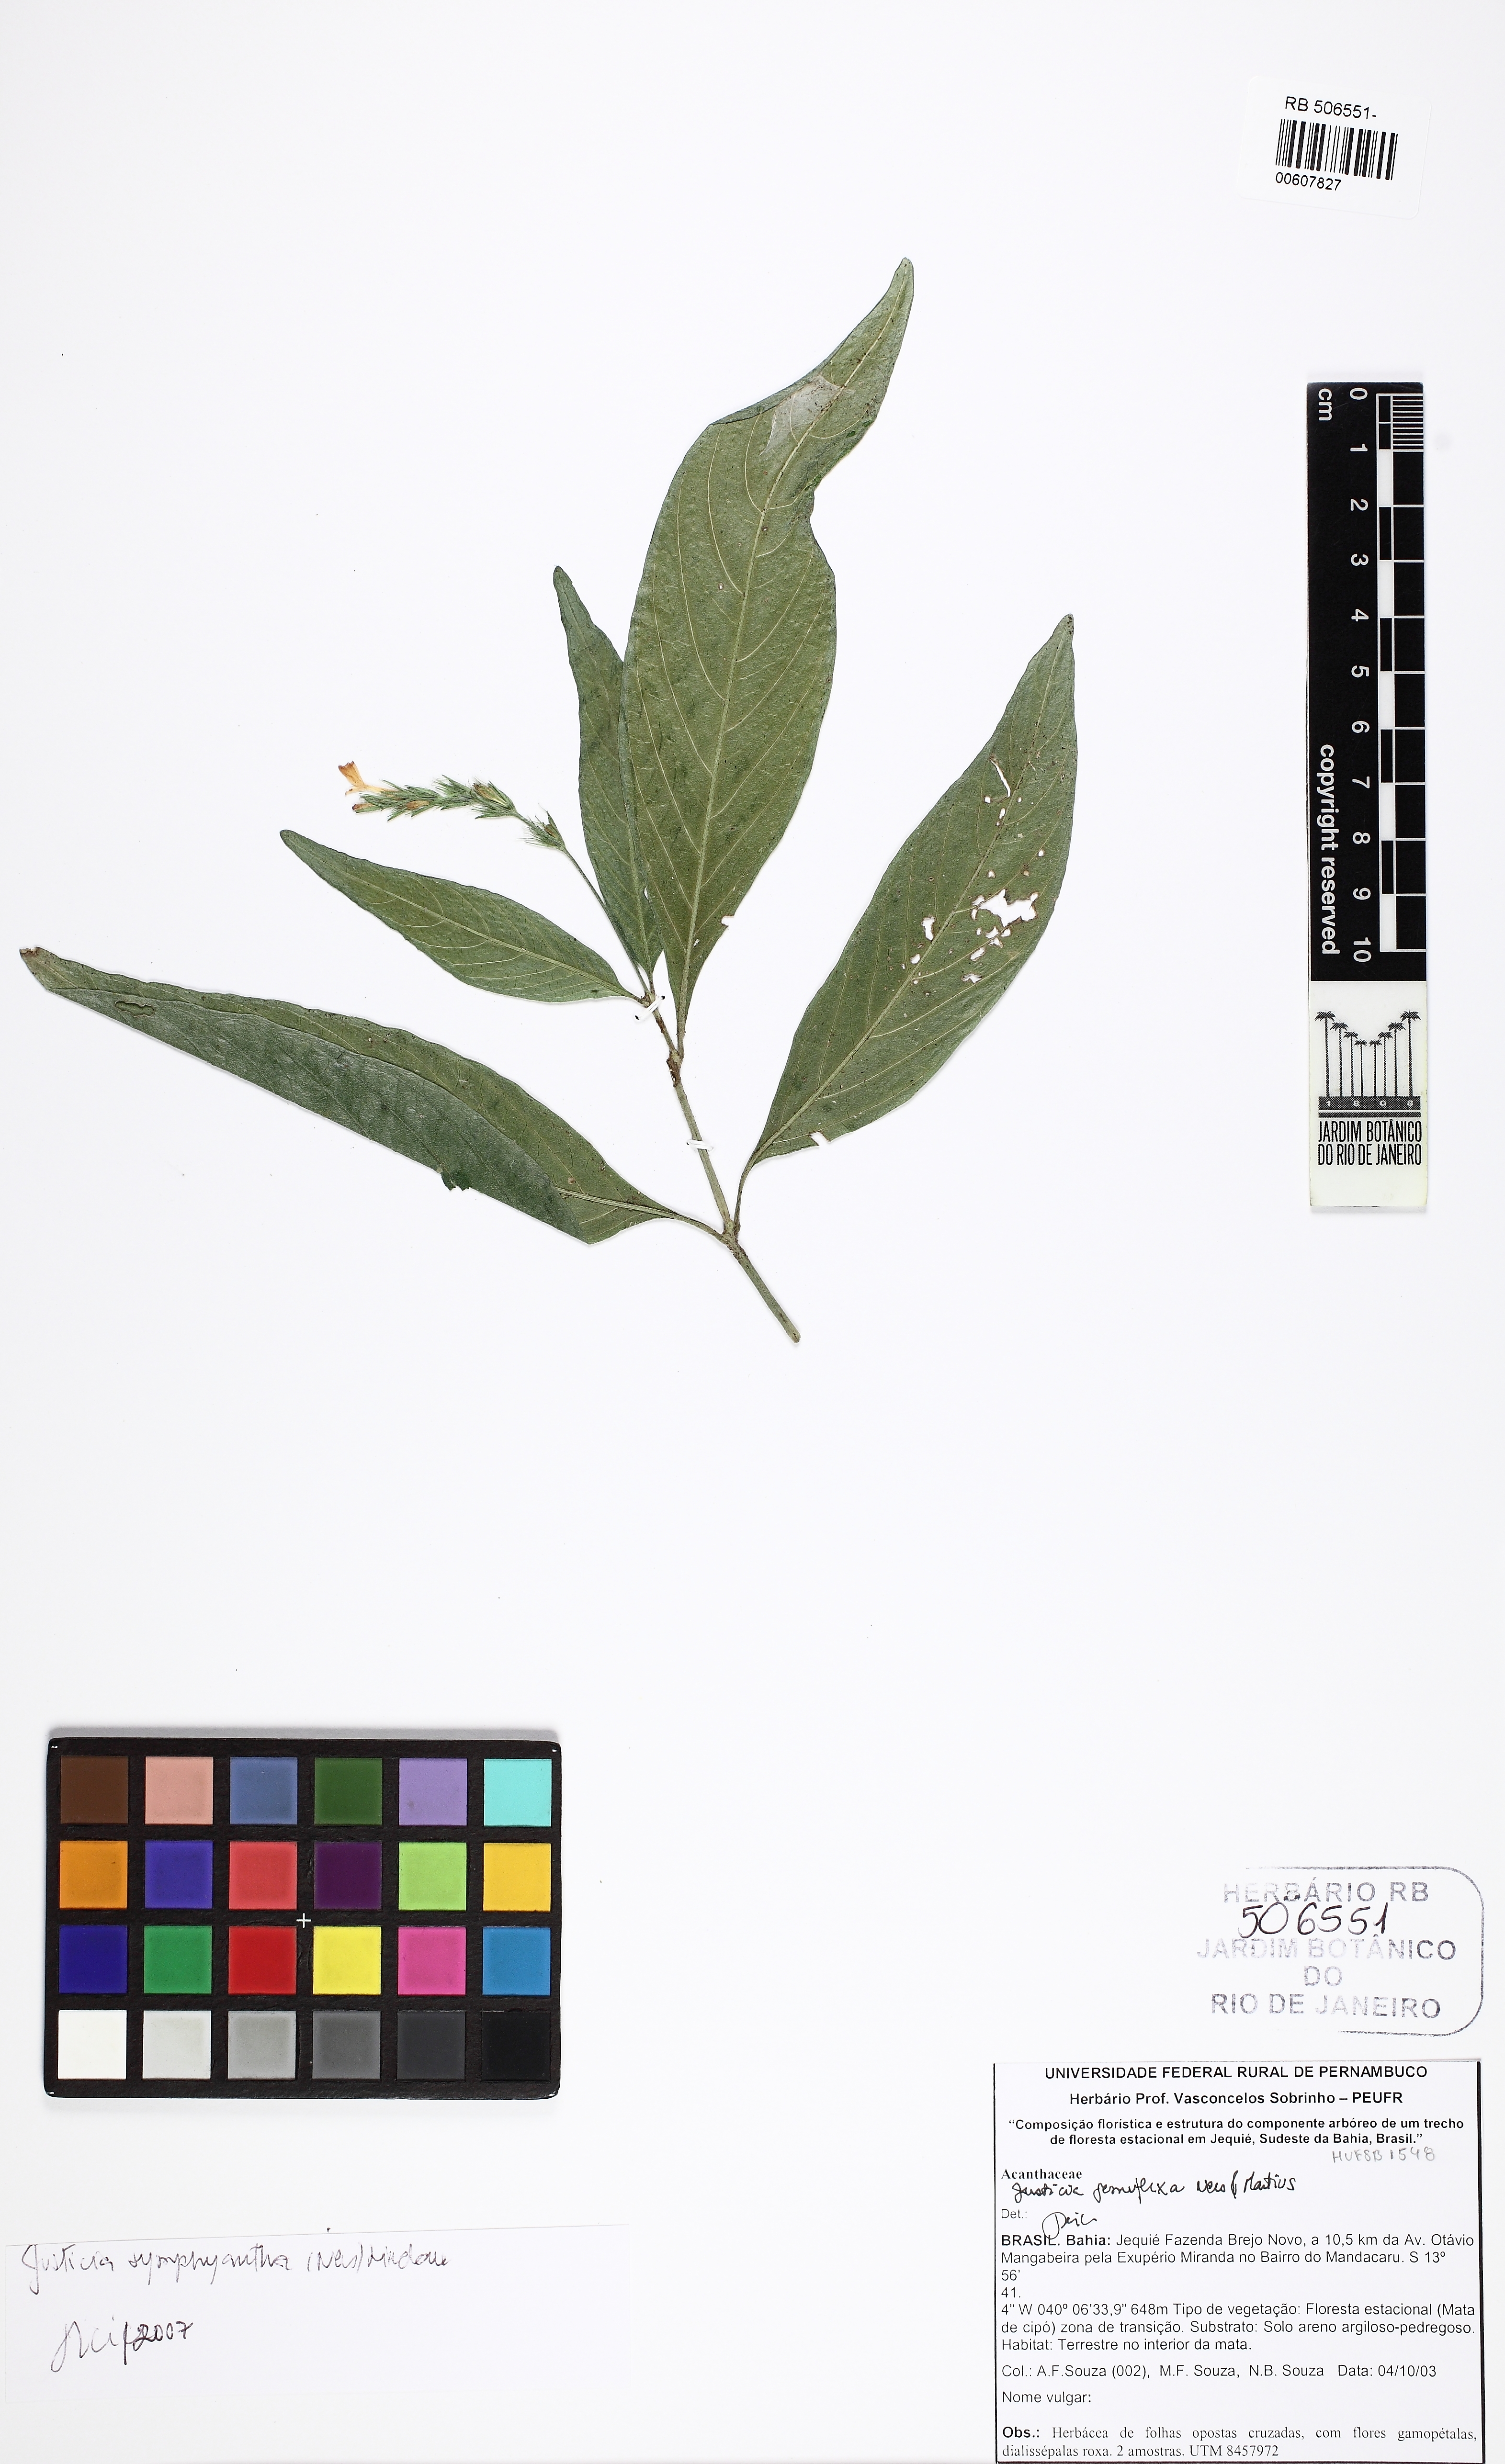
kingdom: Plantae
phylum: Tracheophyta
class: Magnoliopsida
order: Lamiales
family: Acanthaceae
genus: Justicia
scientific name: Justicia symphyantha
